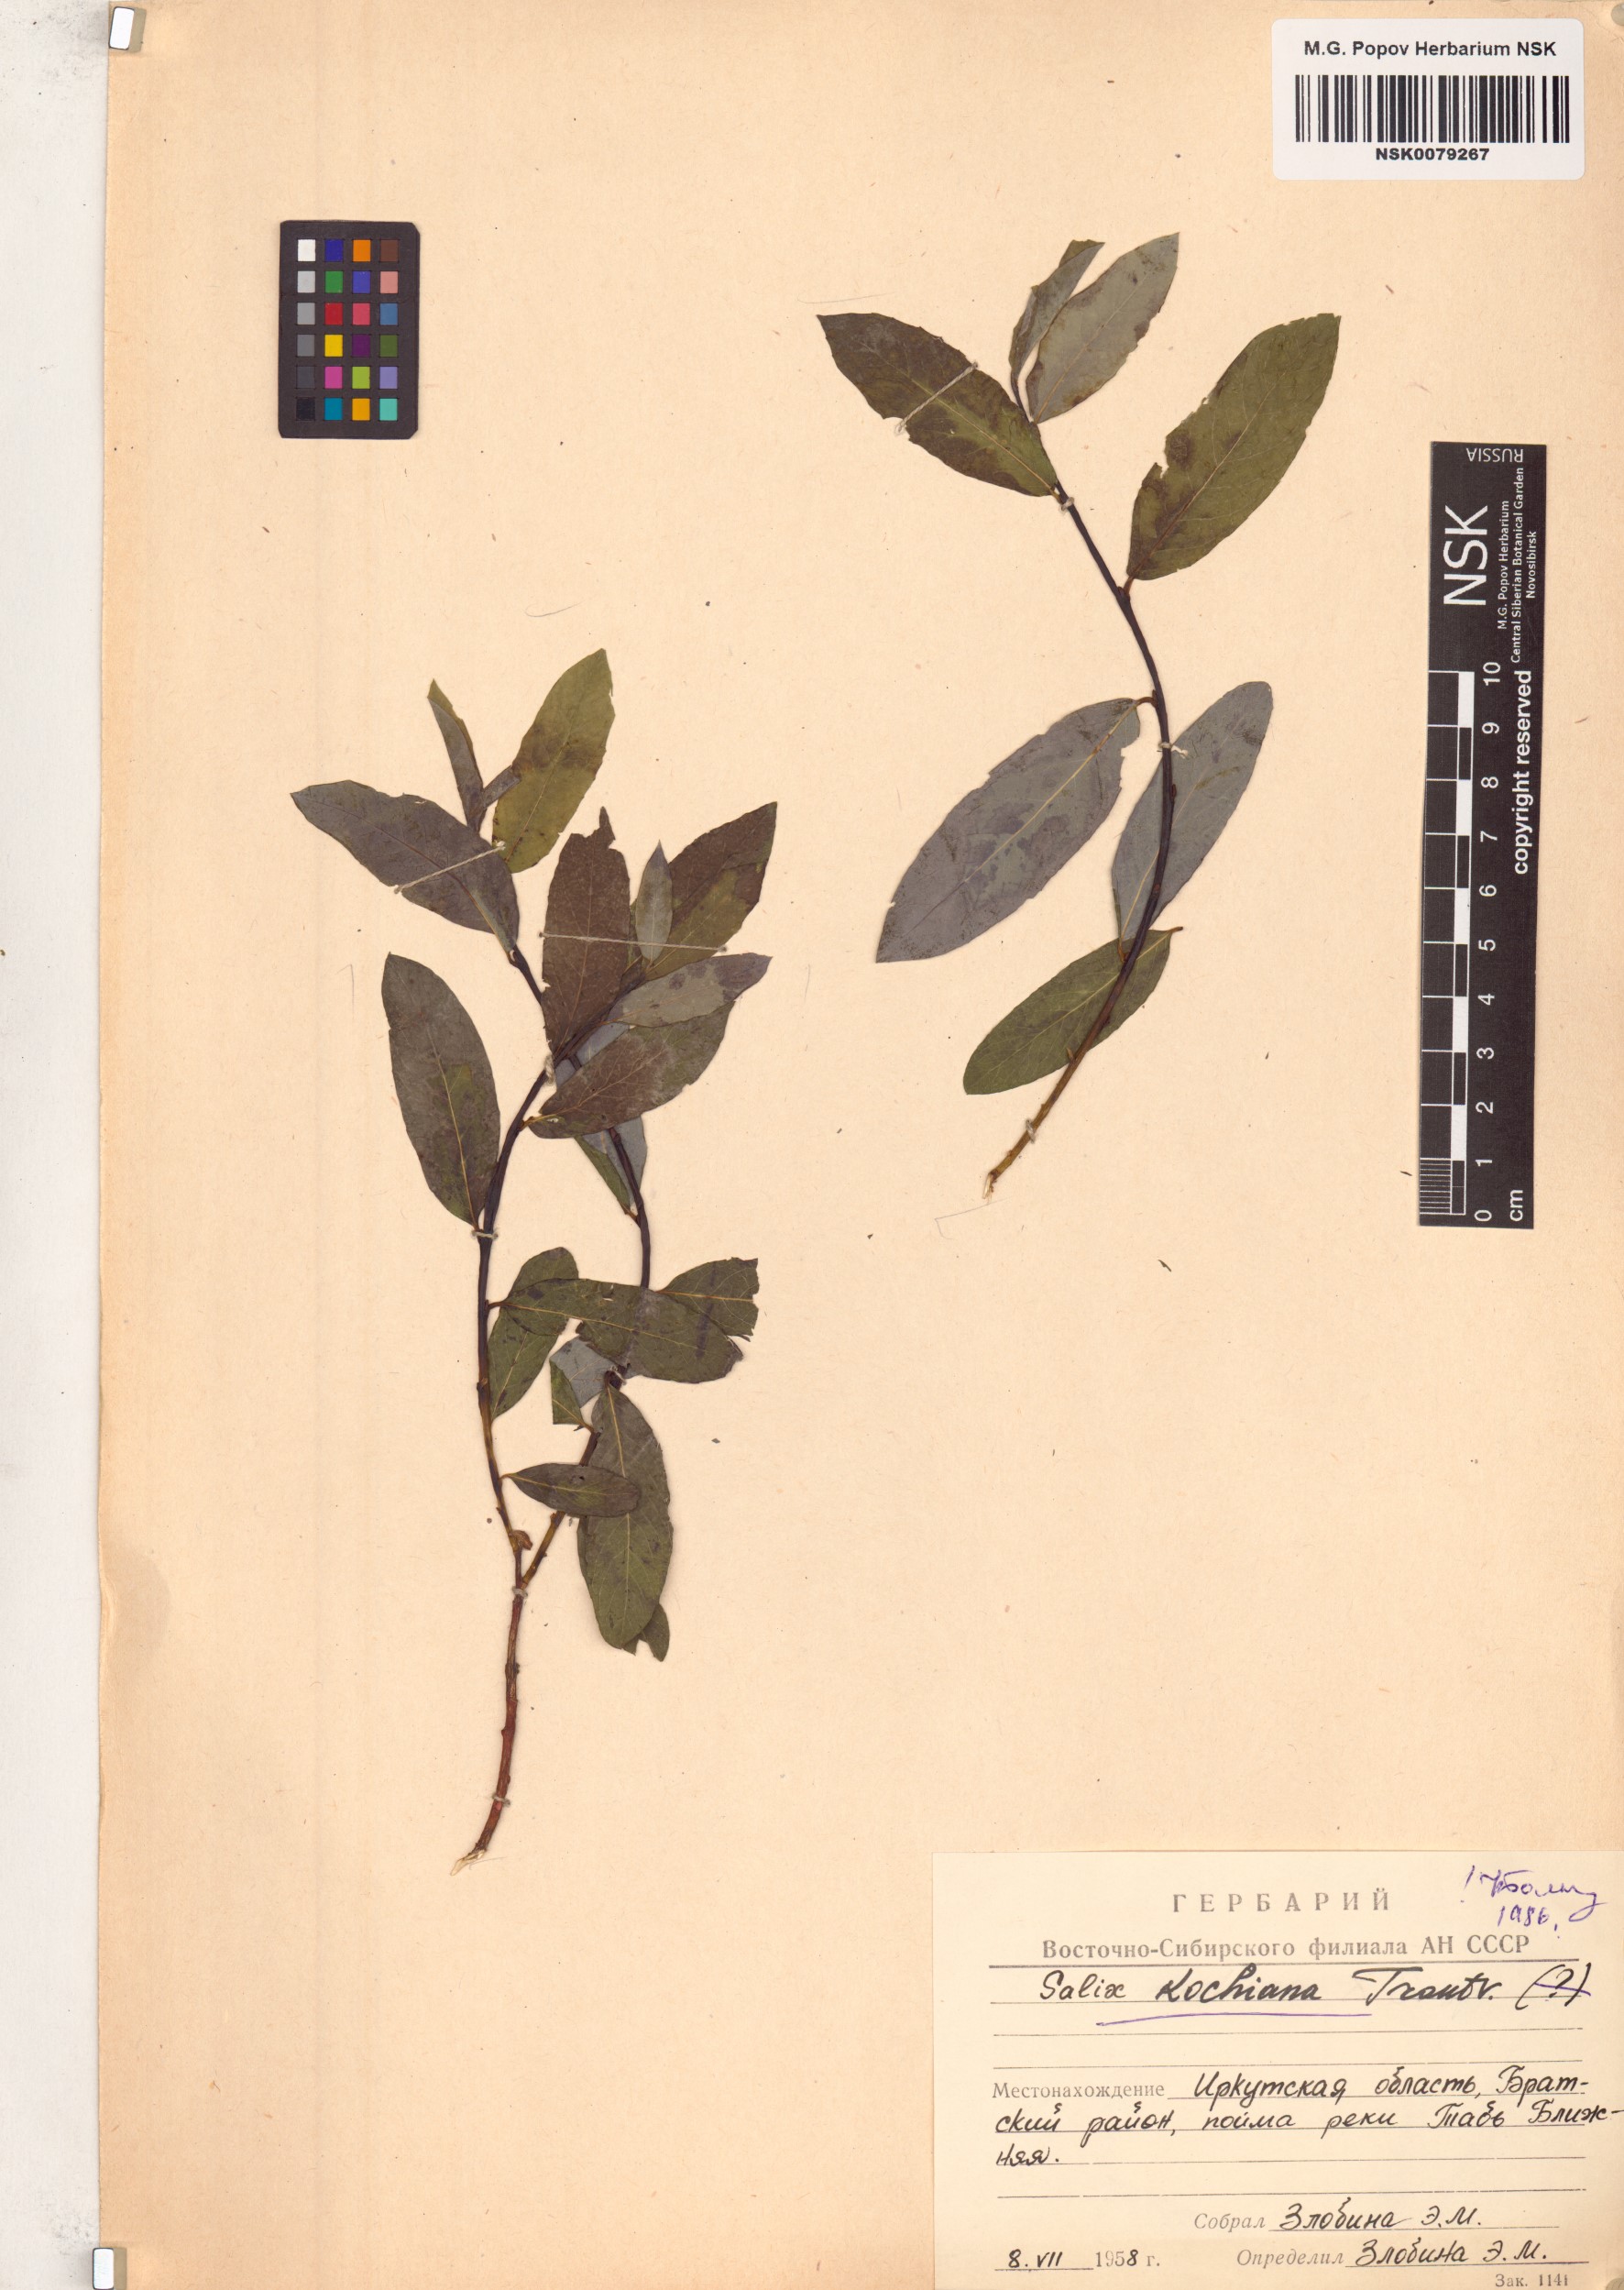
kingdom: Plantae
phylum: Tracheophyta
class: Magnoliopsida
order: Malpighiales
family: Salicaceae
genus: Salix
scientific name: Salix kochiana
